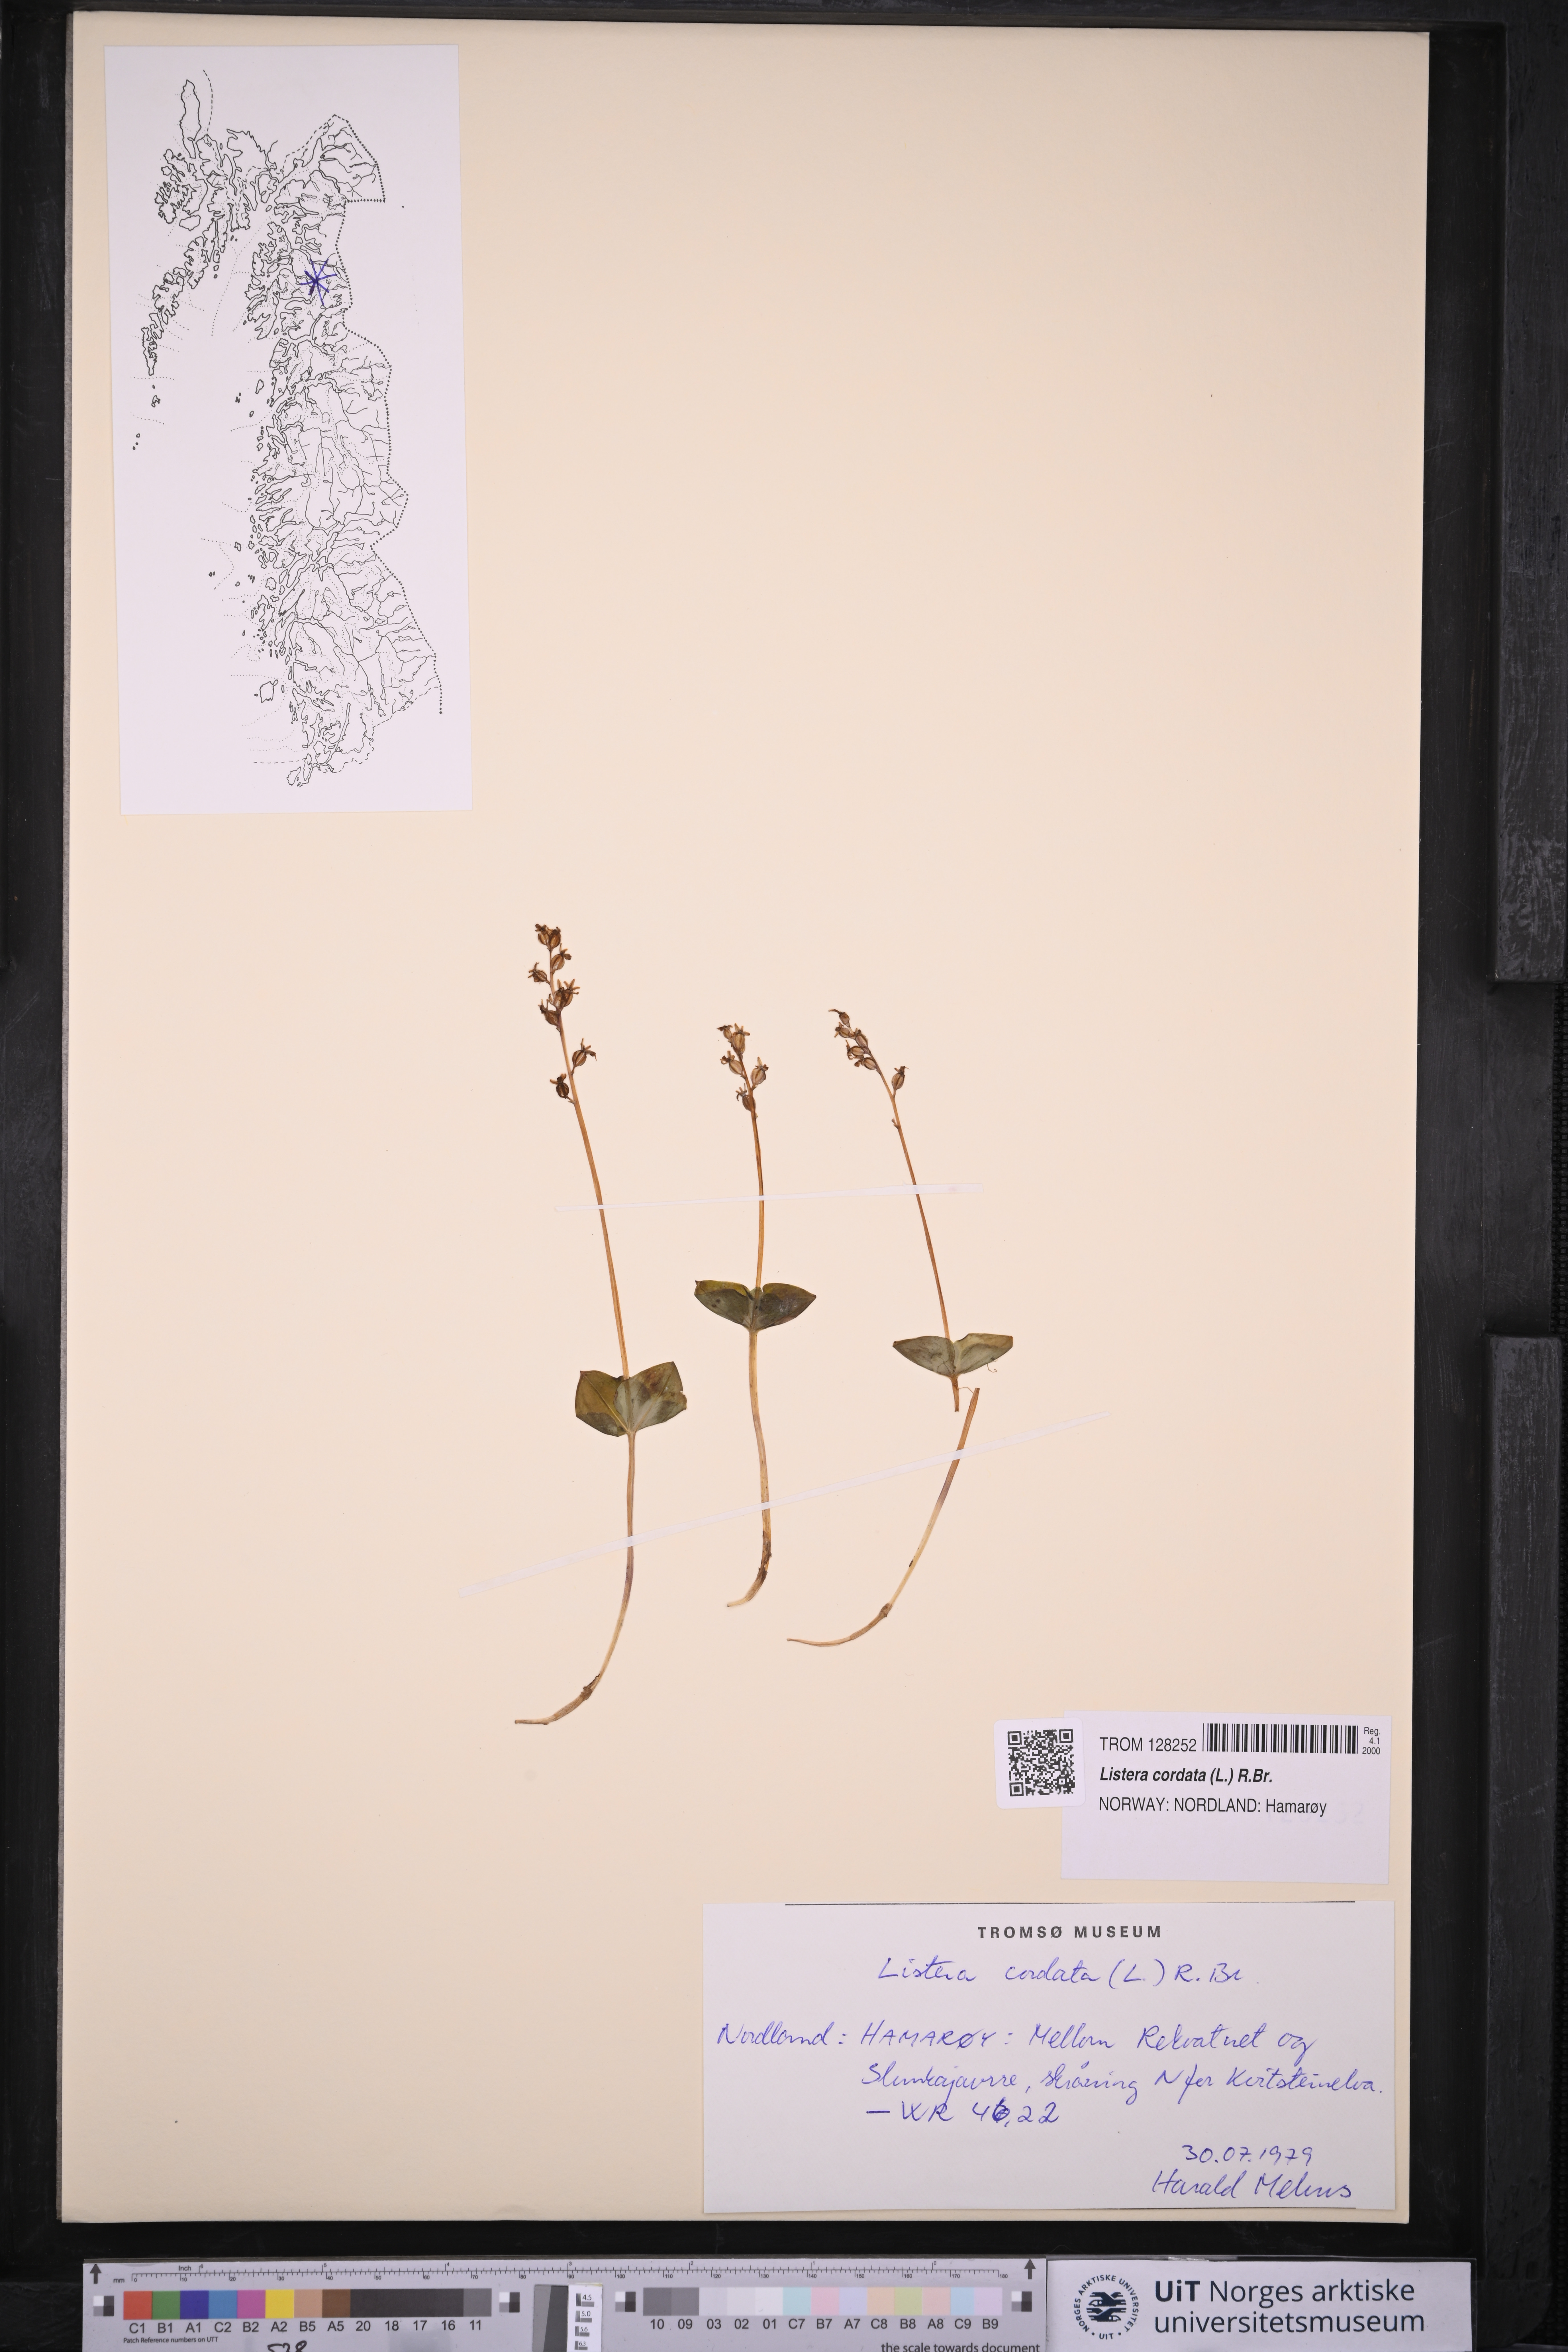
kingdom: Plantae
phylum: Tracheophyta
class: Liliopsida
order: Asparagales
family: Orchidaceae
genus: Neottia
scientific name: Neottia cordata
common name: Lesser twayblade
